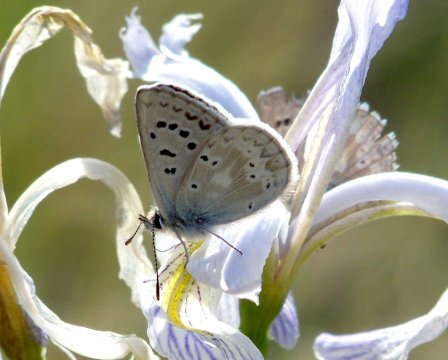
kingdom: Animalia
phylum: Arthropoda
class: Insecta
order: Lepidoptera
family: Lycaenidae
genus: Agriades
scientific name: Agriades glandon
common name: Arctic Blue
